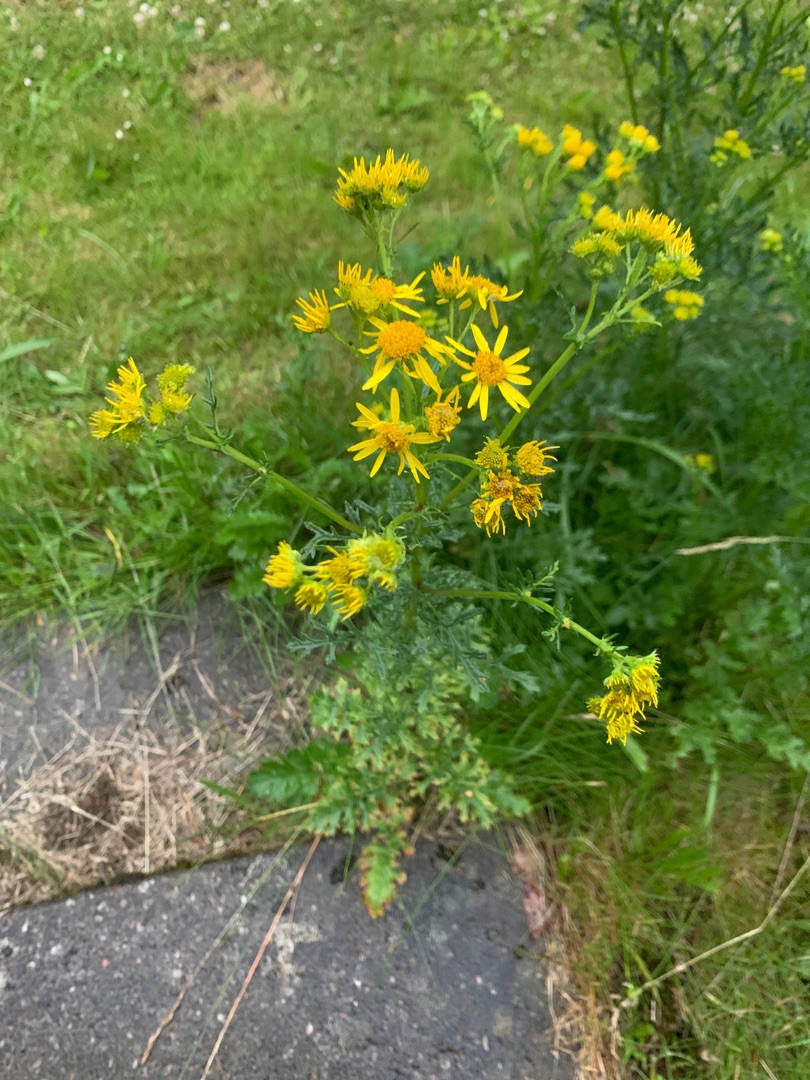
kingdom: Plantae
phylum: Tracheophyta
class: Magnoliopsida
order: Asterales
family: Asteraceae
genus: Jacobaea
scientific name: Jacobaea vulgaris
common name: Eng-brandbæger
